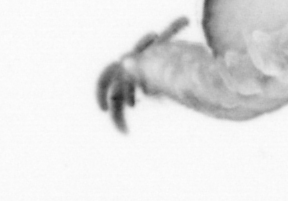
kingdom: Animalia
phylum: Annelida
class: Polychaeta
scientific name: Polychaeta
